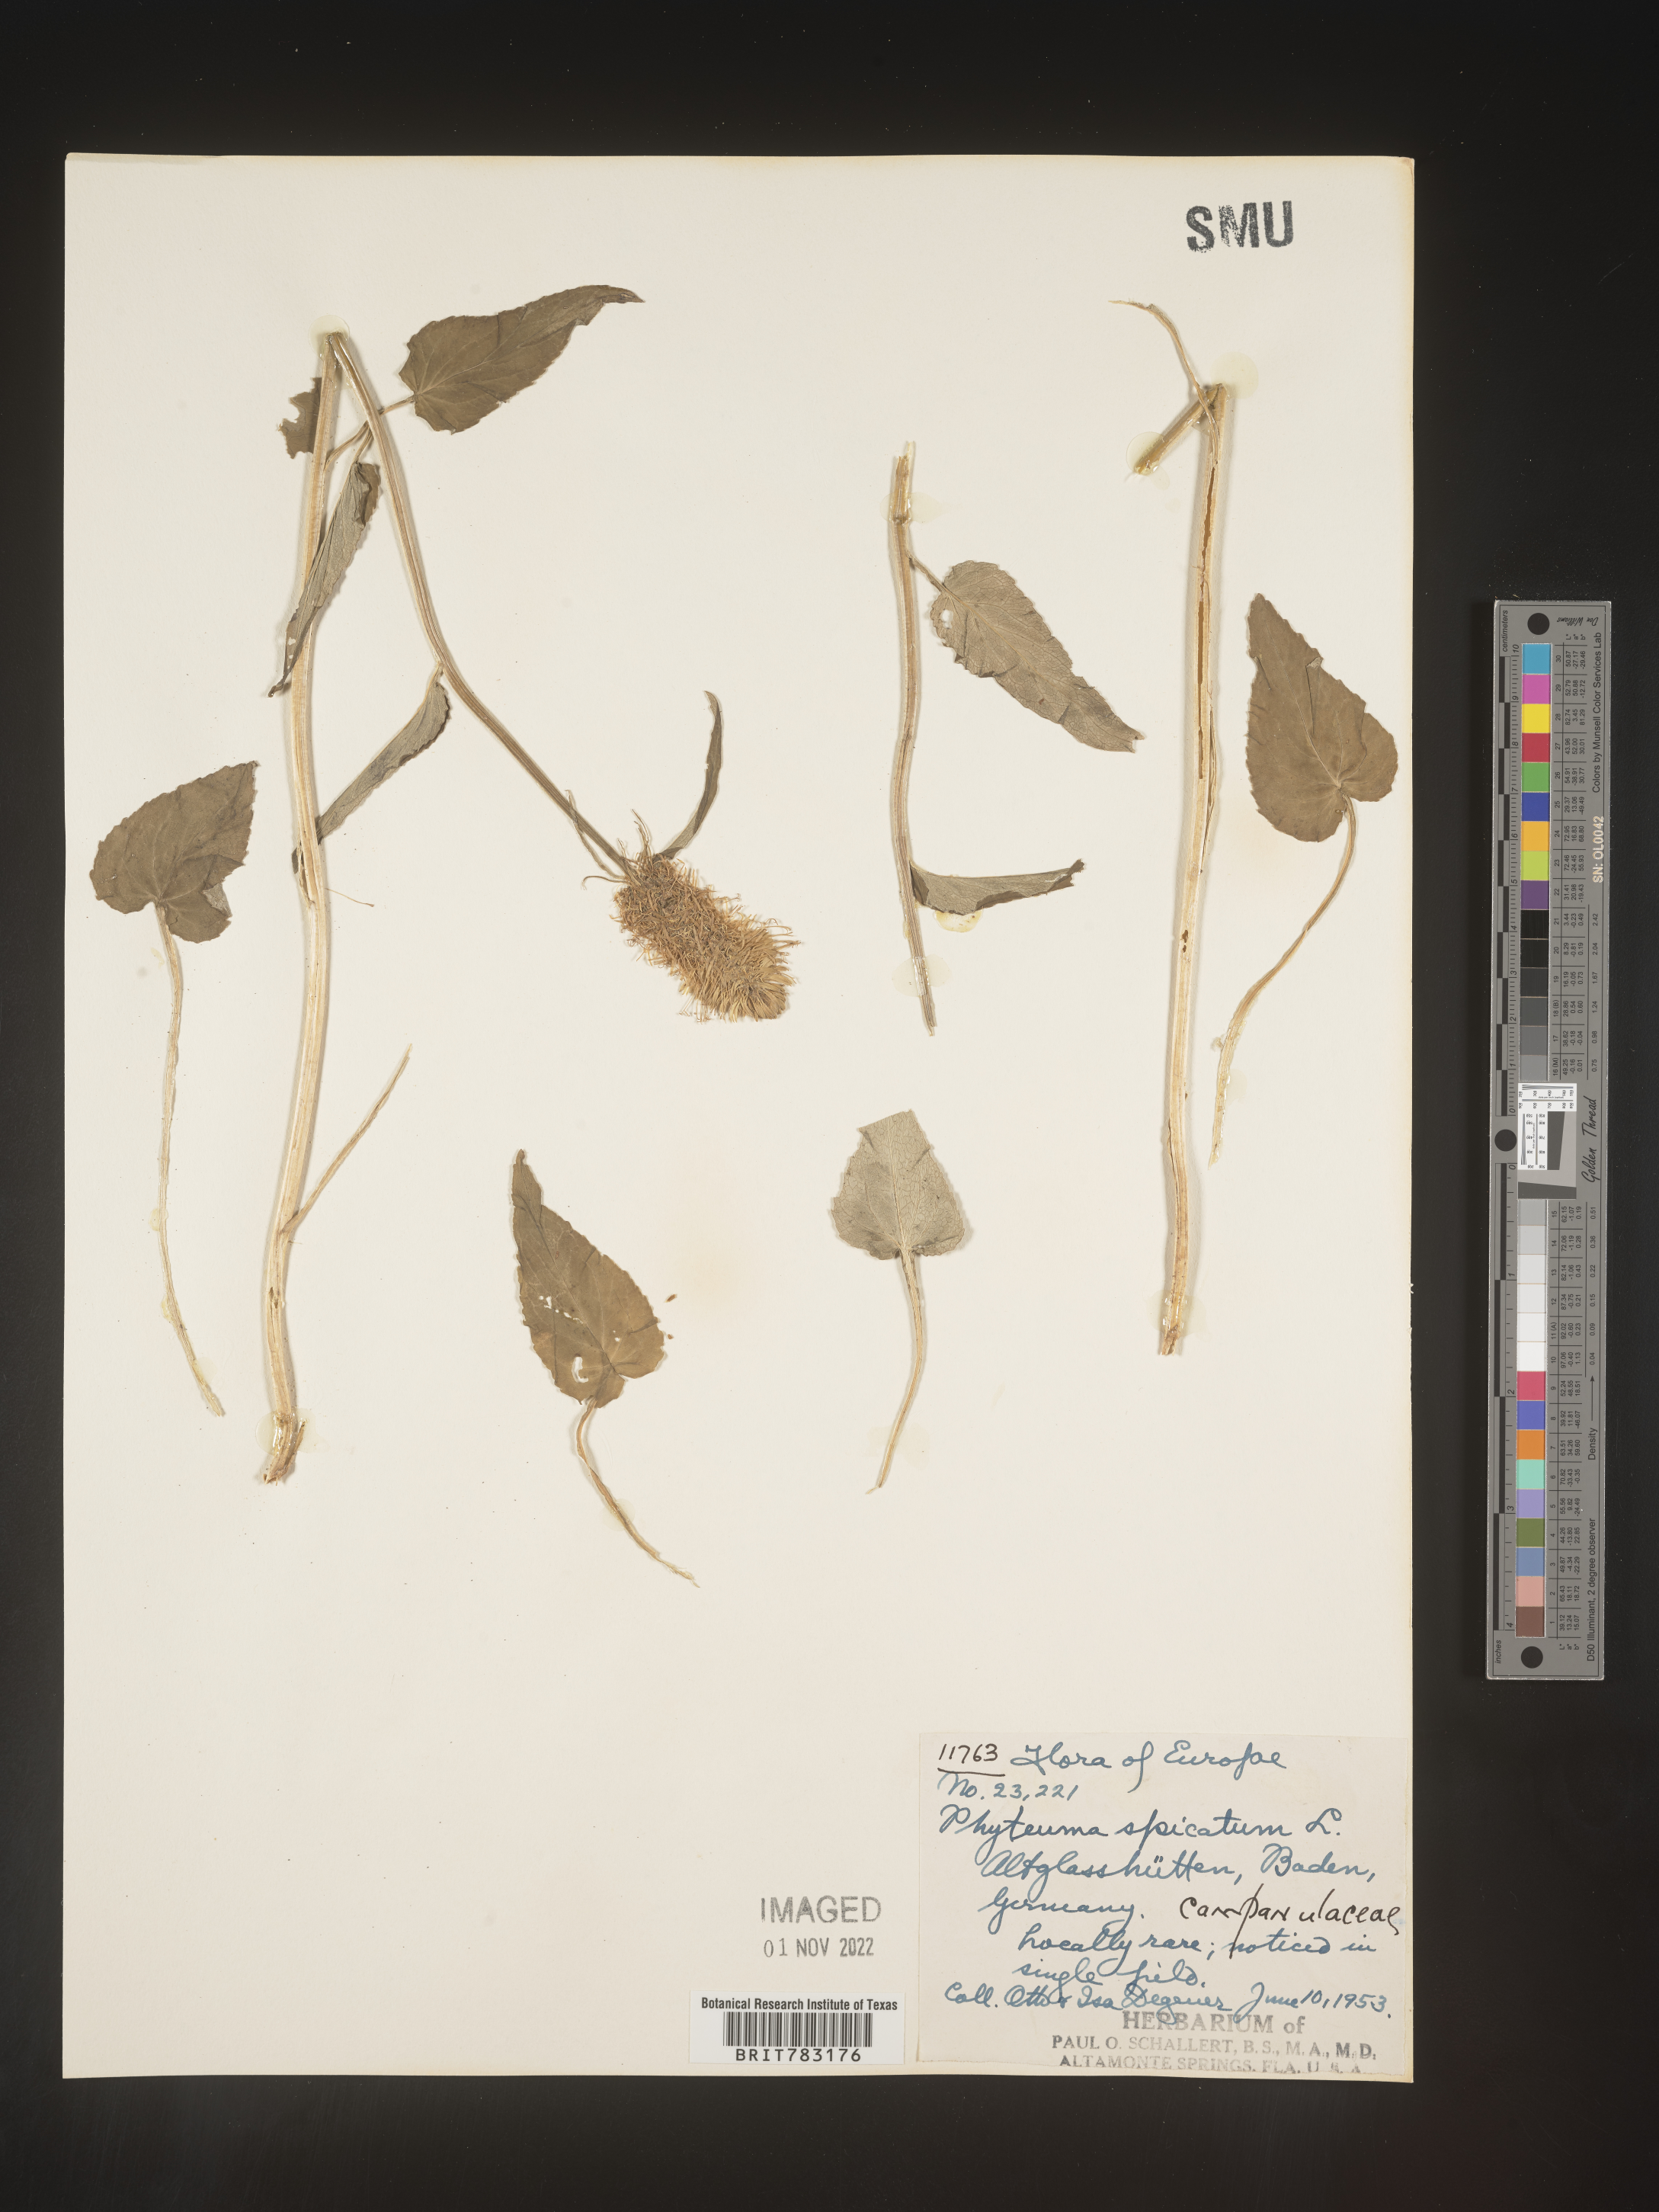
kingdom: Plantae
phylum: Tracheophyta
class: Magnoliopsida
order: Asterales
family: Campanulaceae
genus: Phyteuma
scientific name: Phyteuma
